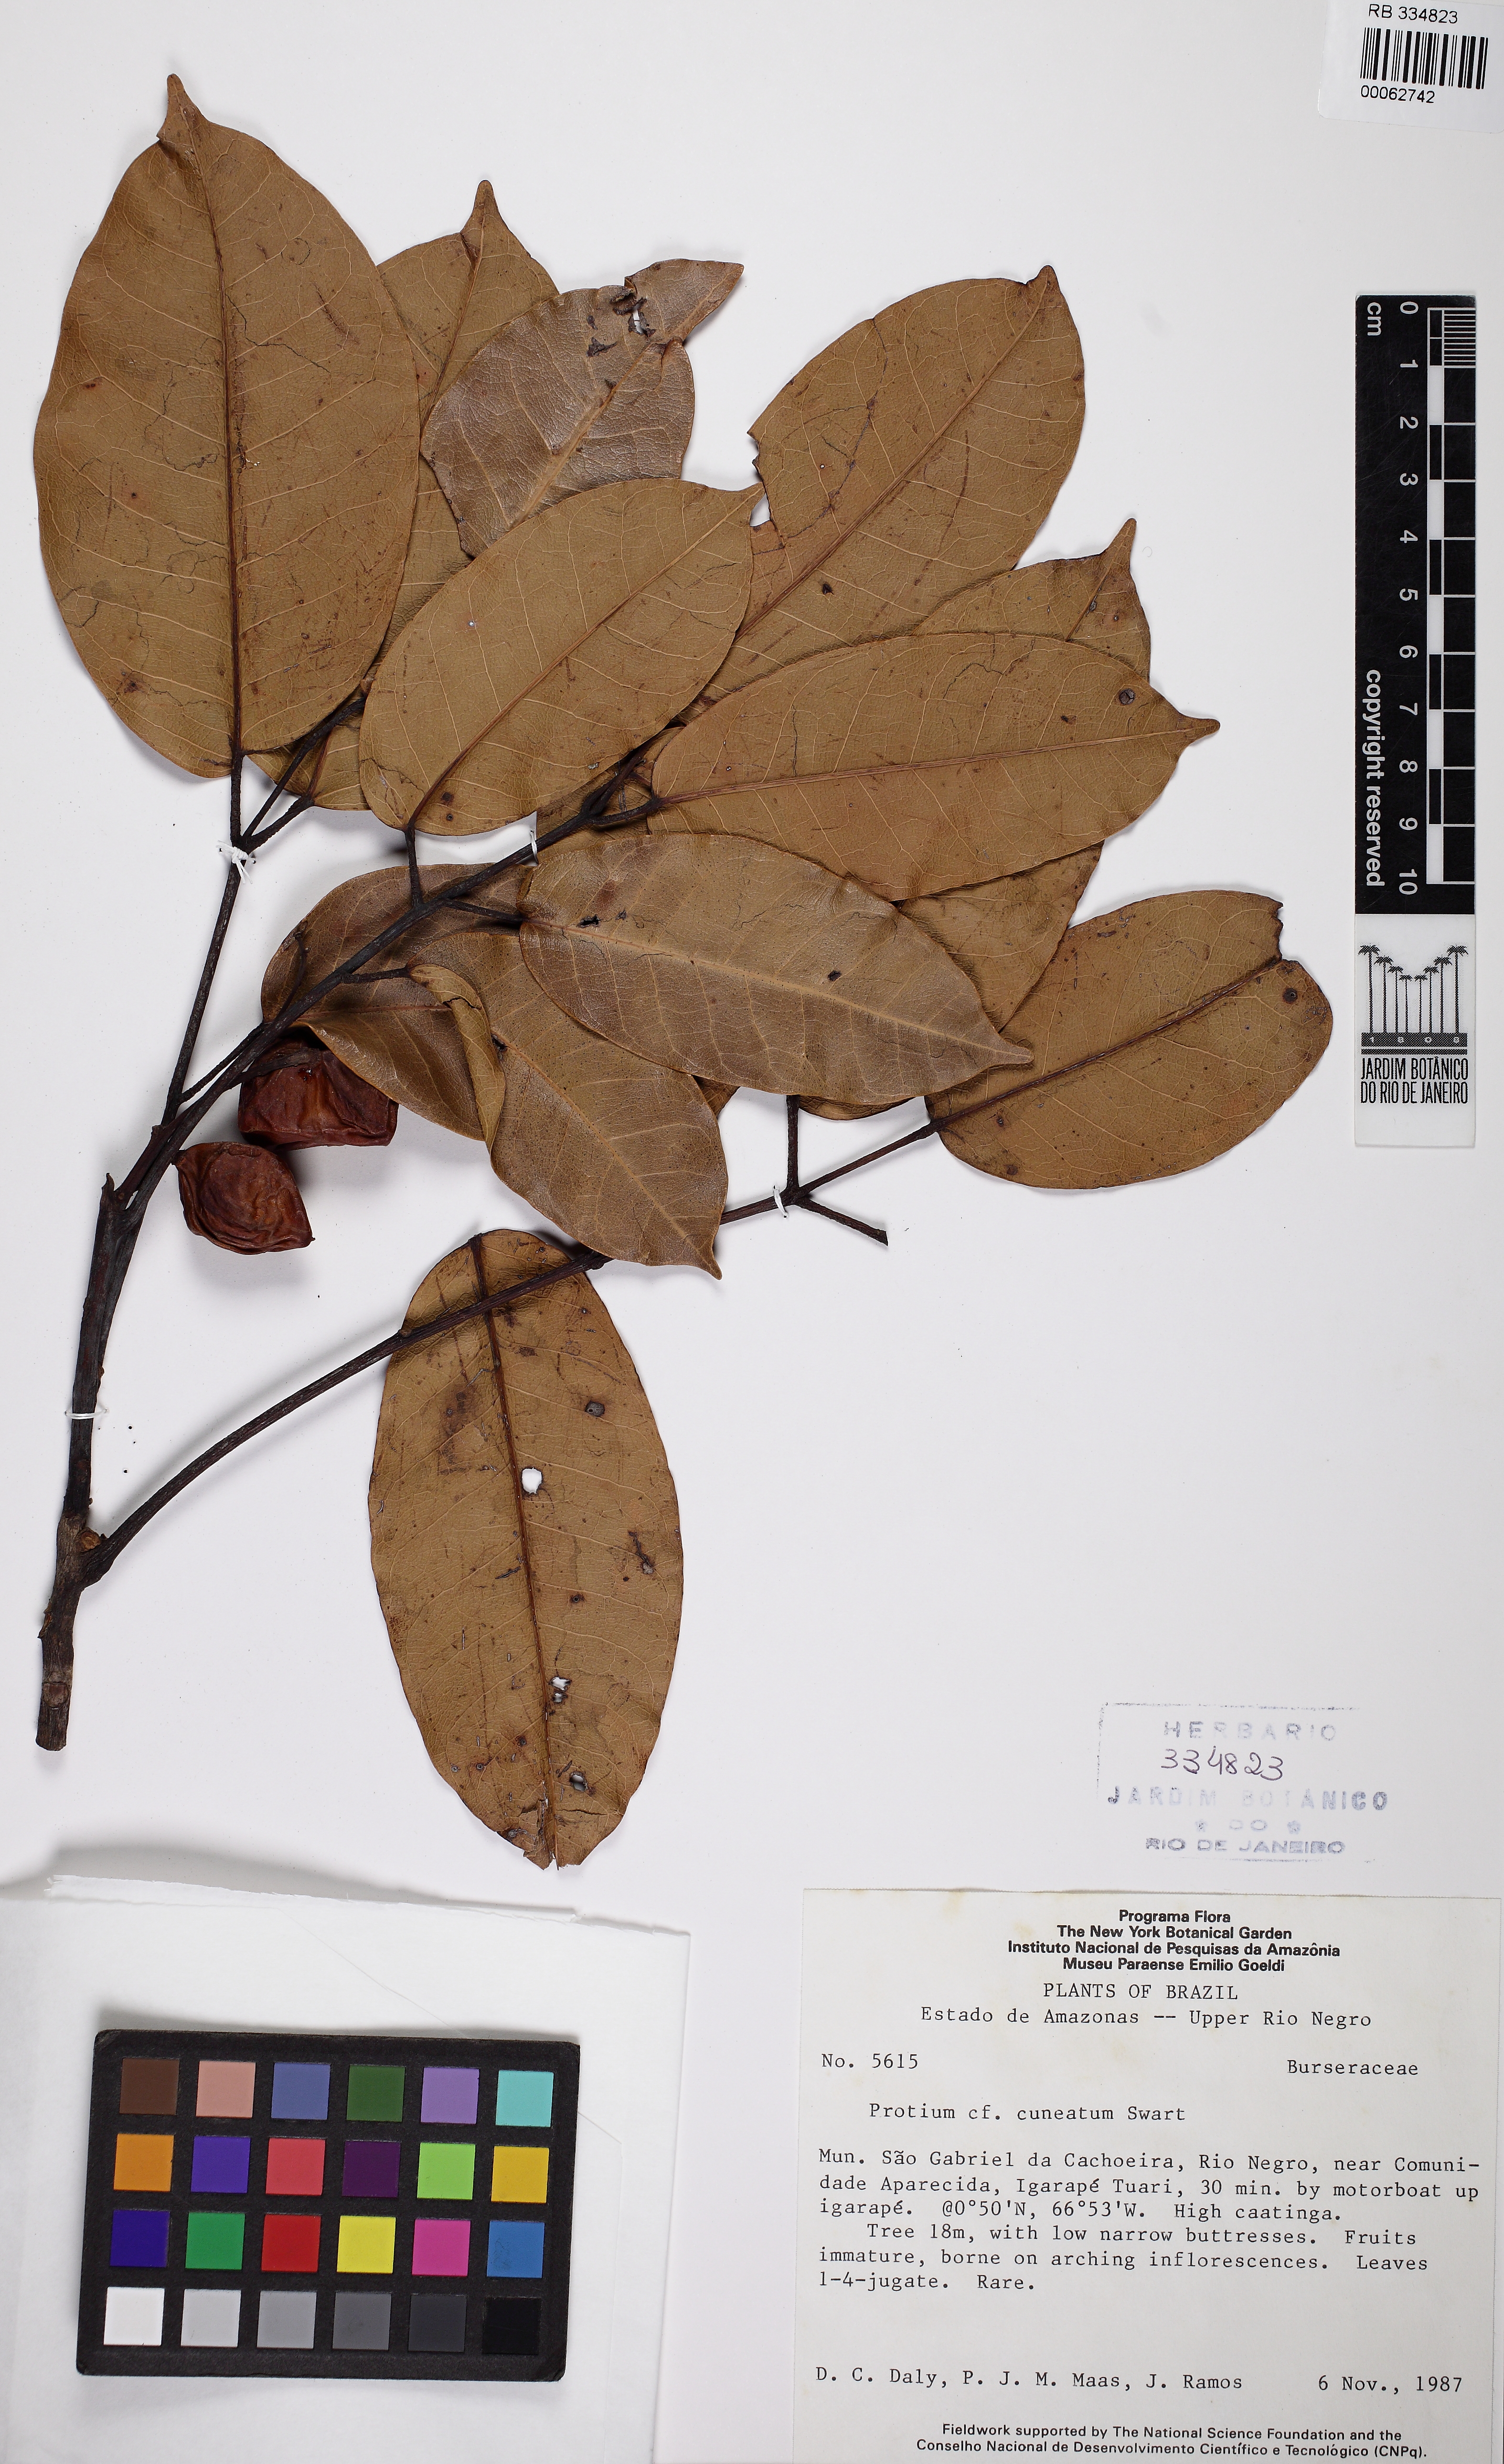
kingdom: Plantae
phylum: Tracheophyta
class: Magnoliopsida
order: Sapindales
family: Burseraceae
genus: Protium
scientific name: Protium cuneatum
